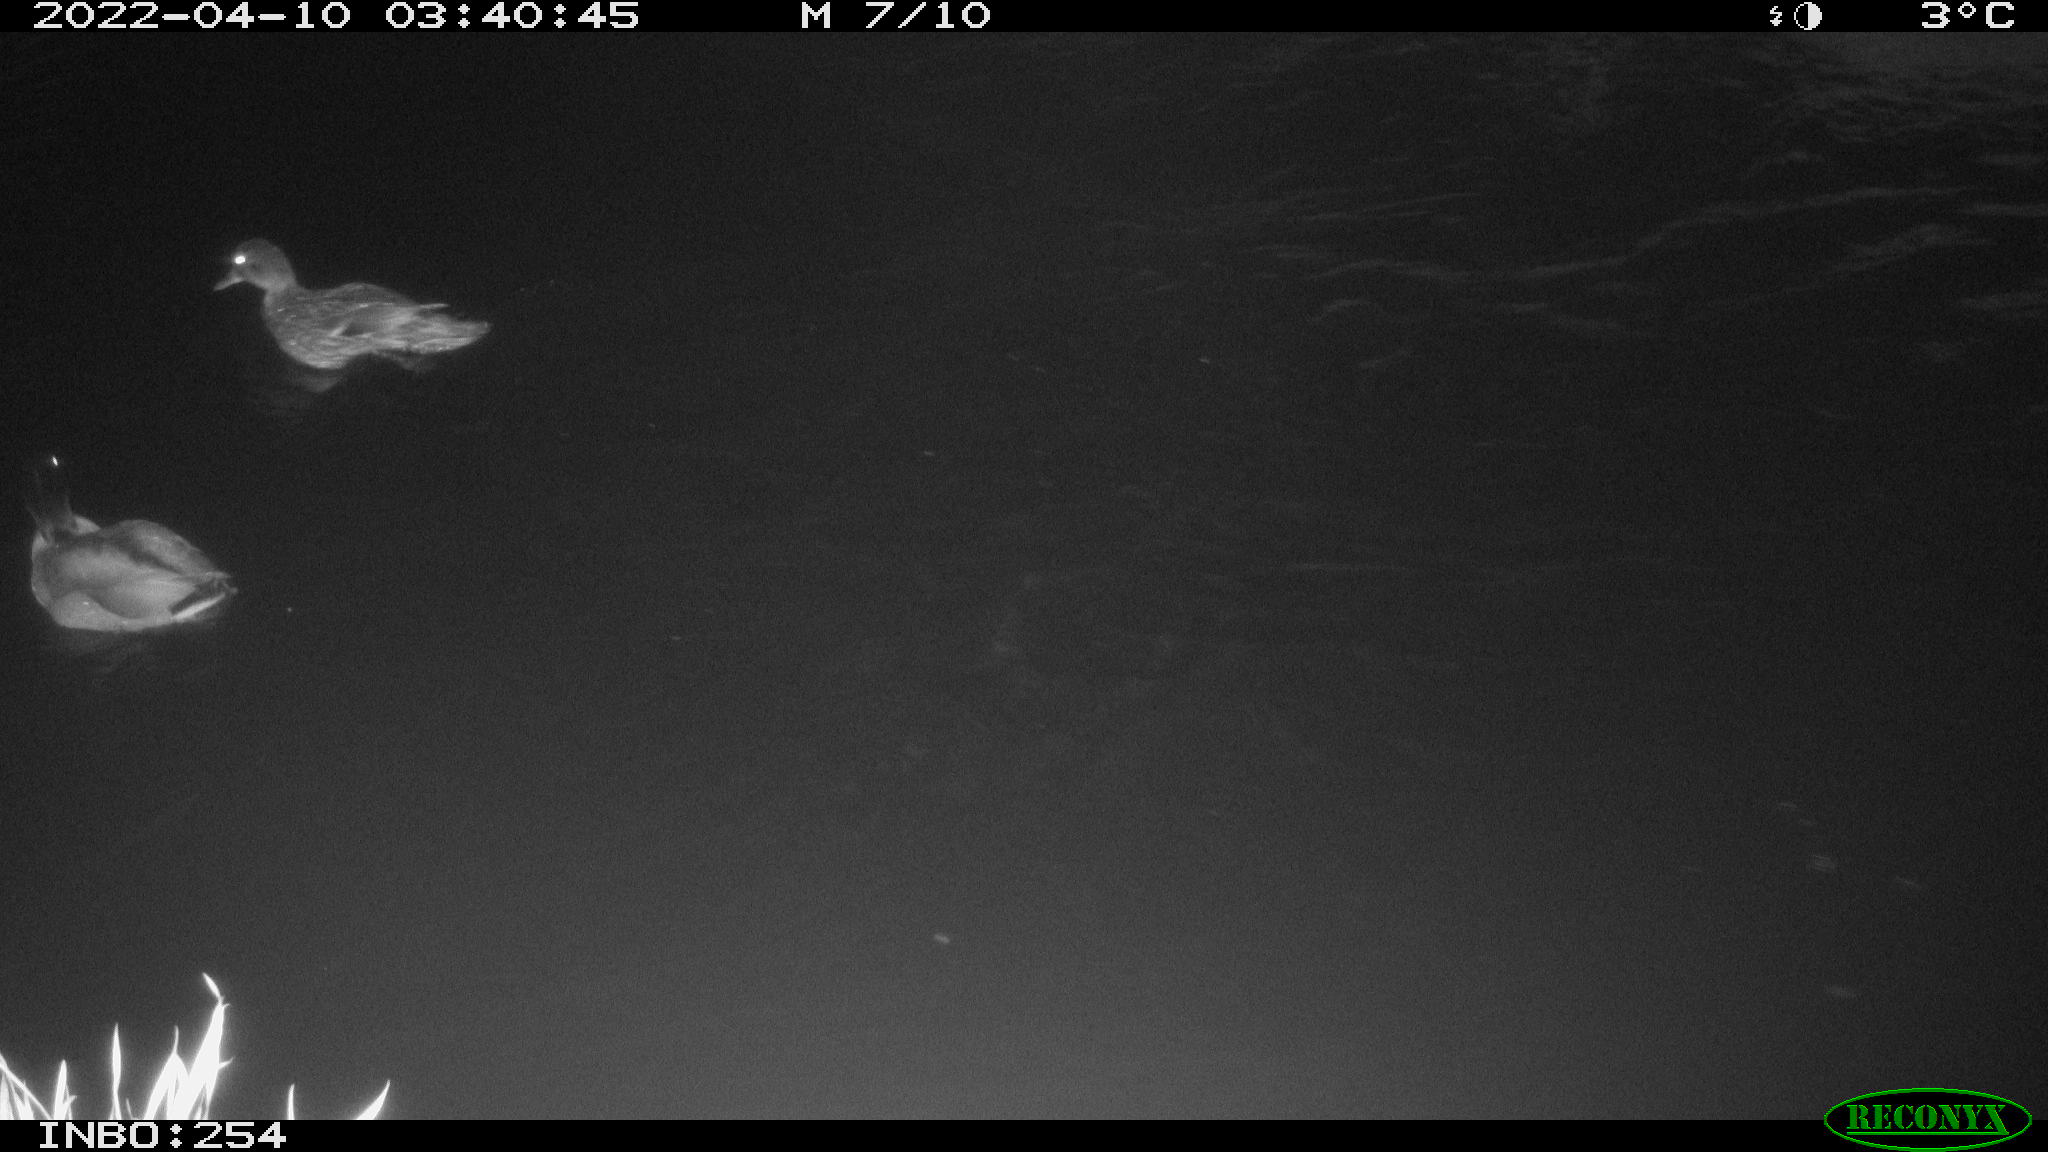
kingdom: Animalia
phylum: Chordata
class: Aves
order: Anseriformes
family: Anatidae
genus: Anas
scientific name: Anas
